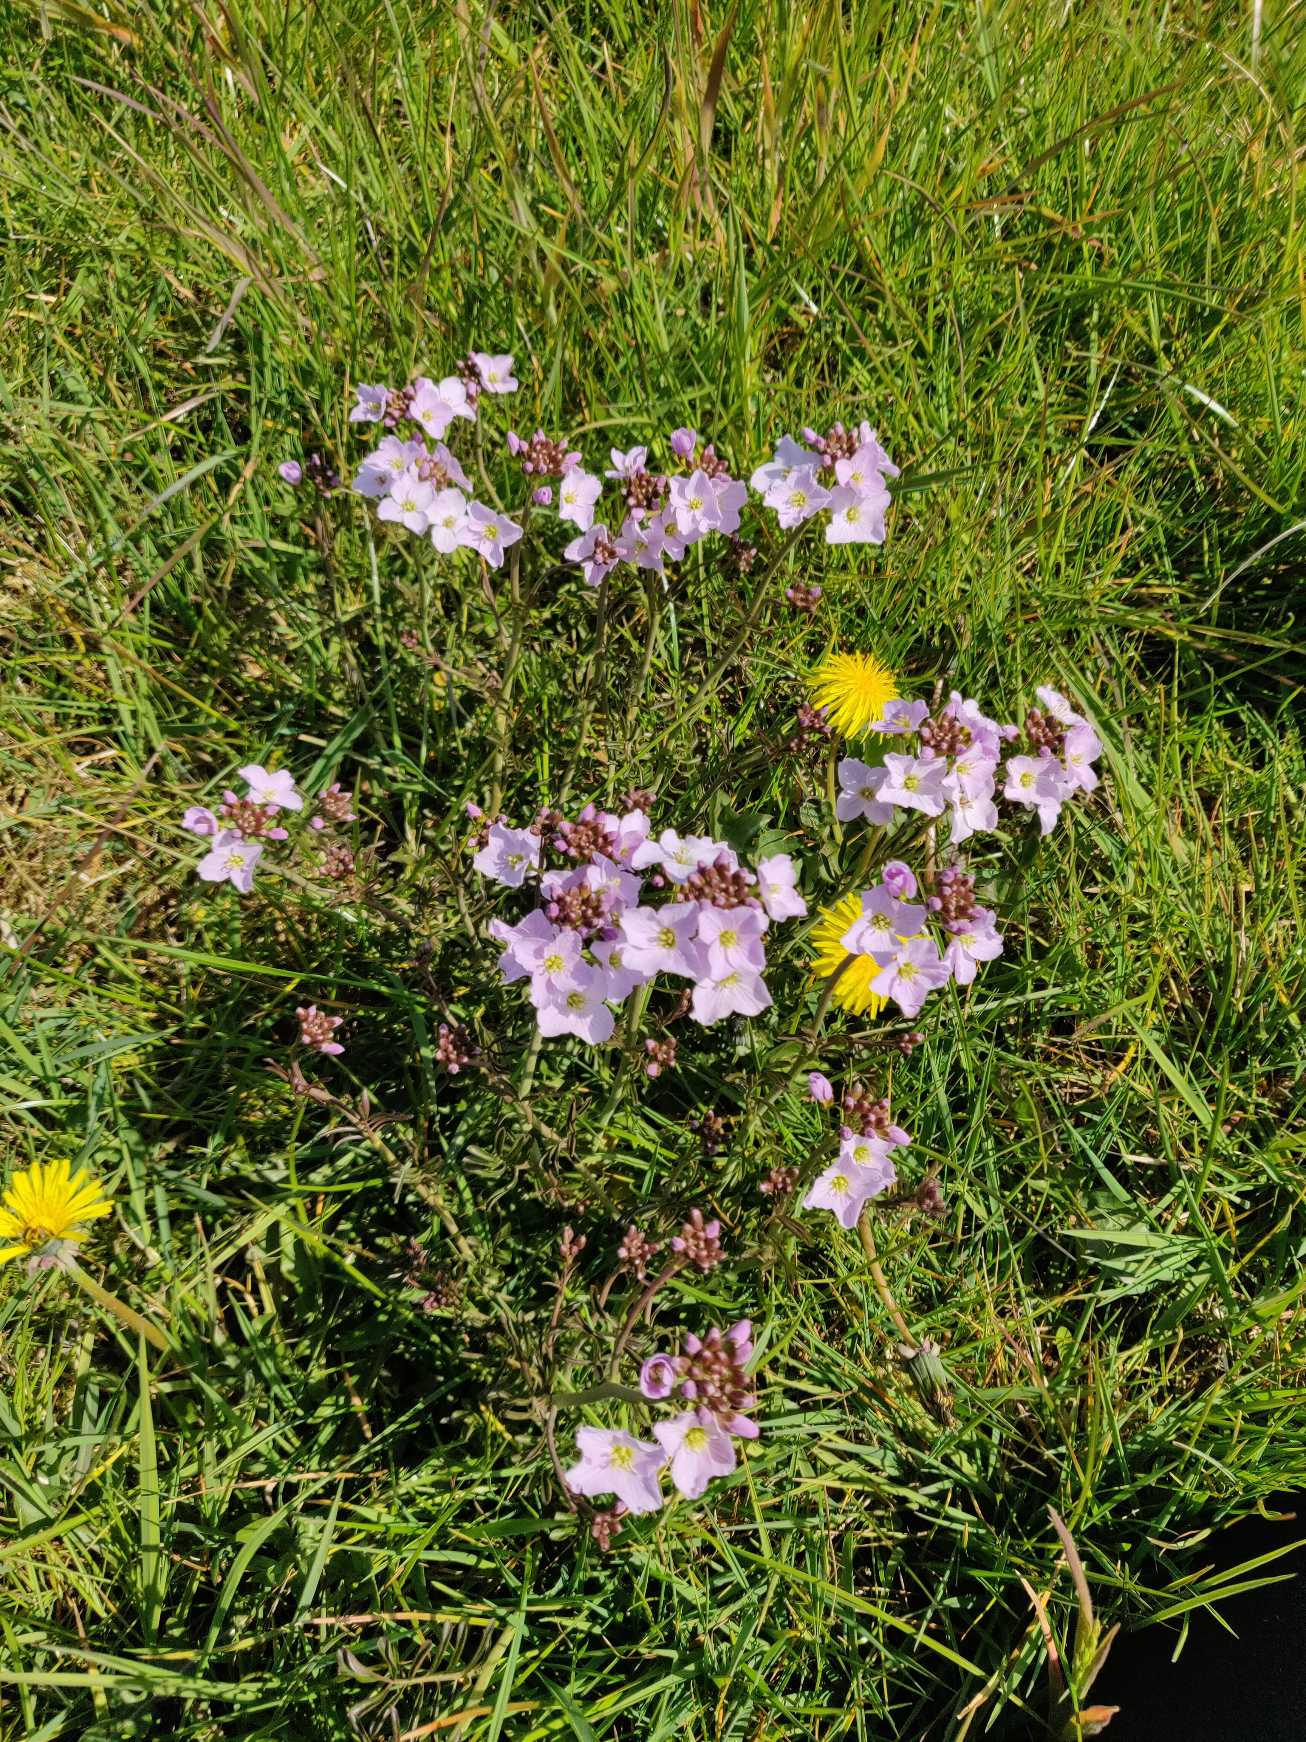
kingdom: Plantae
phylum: Tracheophyta
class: Magnoliopsida
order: Brassicales
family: Brassicaceae
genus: Cardamine
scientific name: Cardamine pratensis
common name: Engkarse
